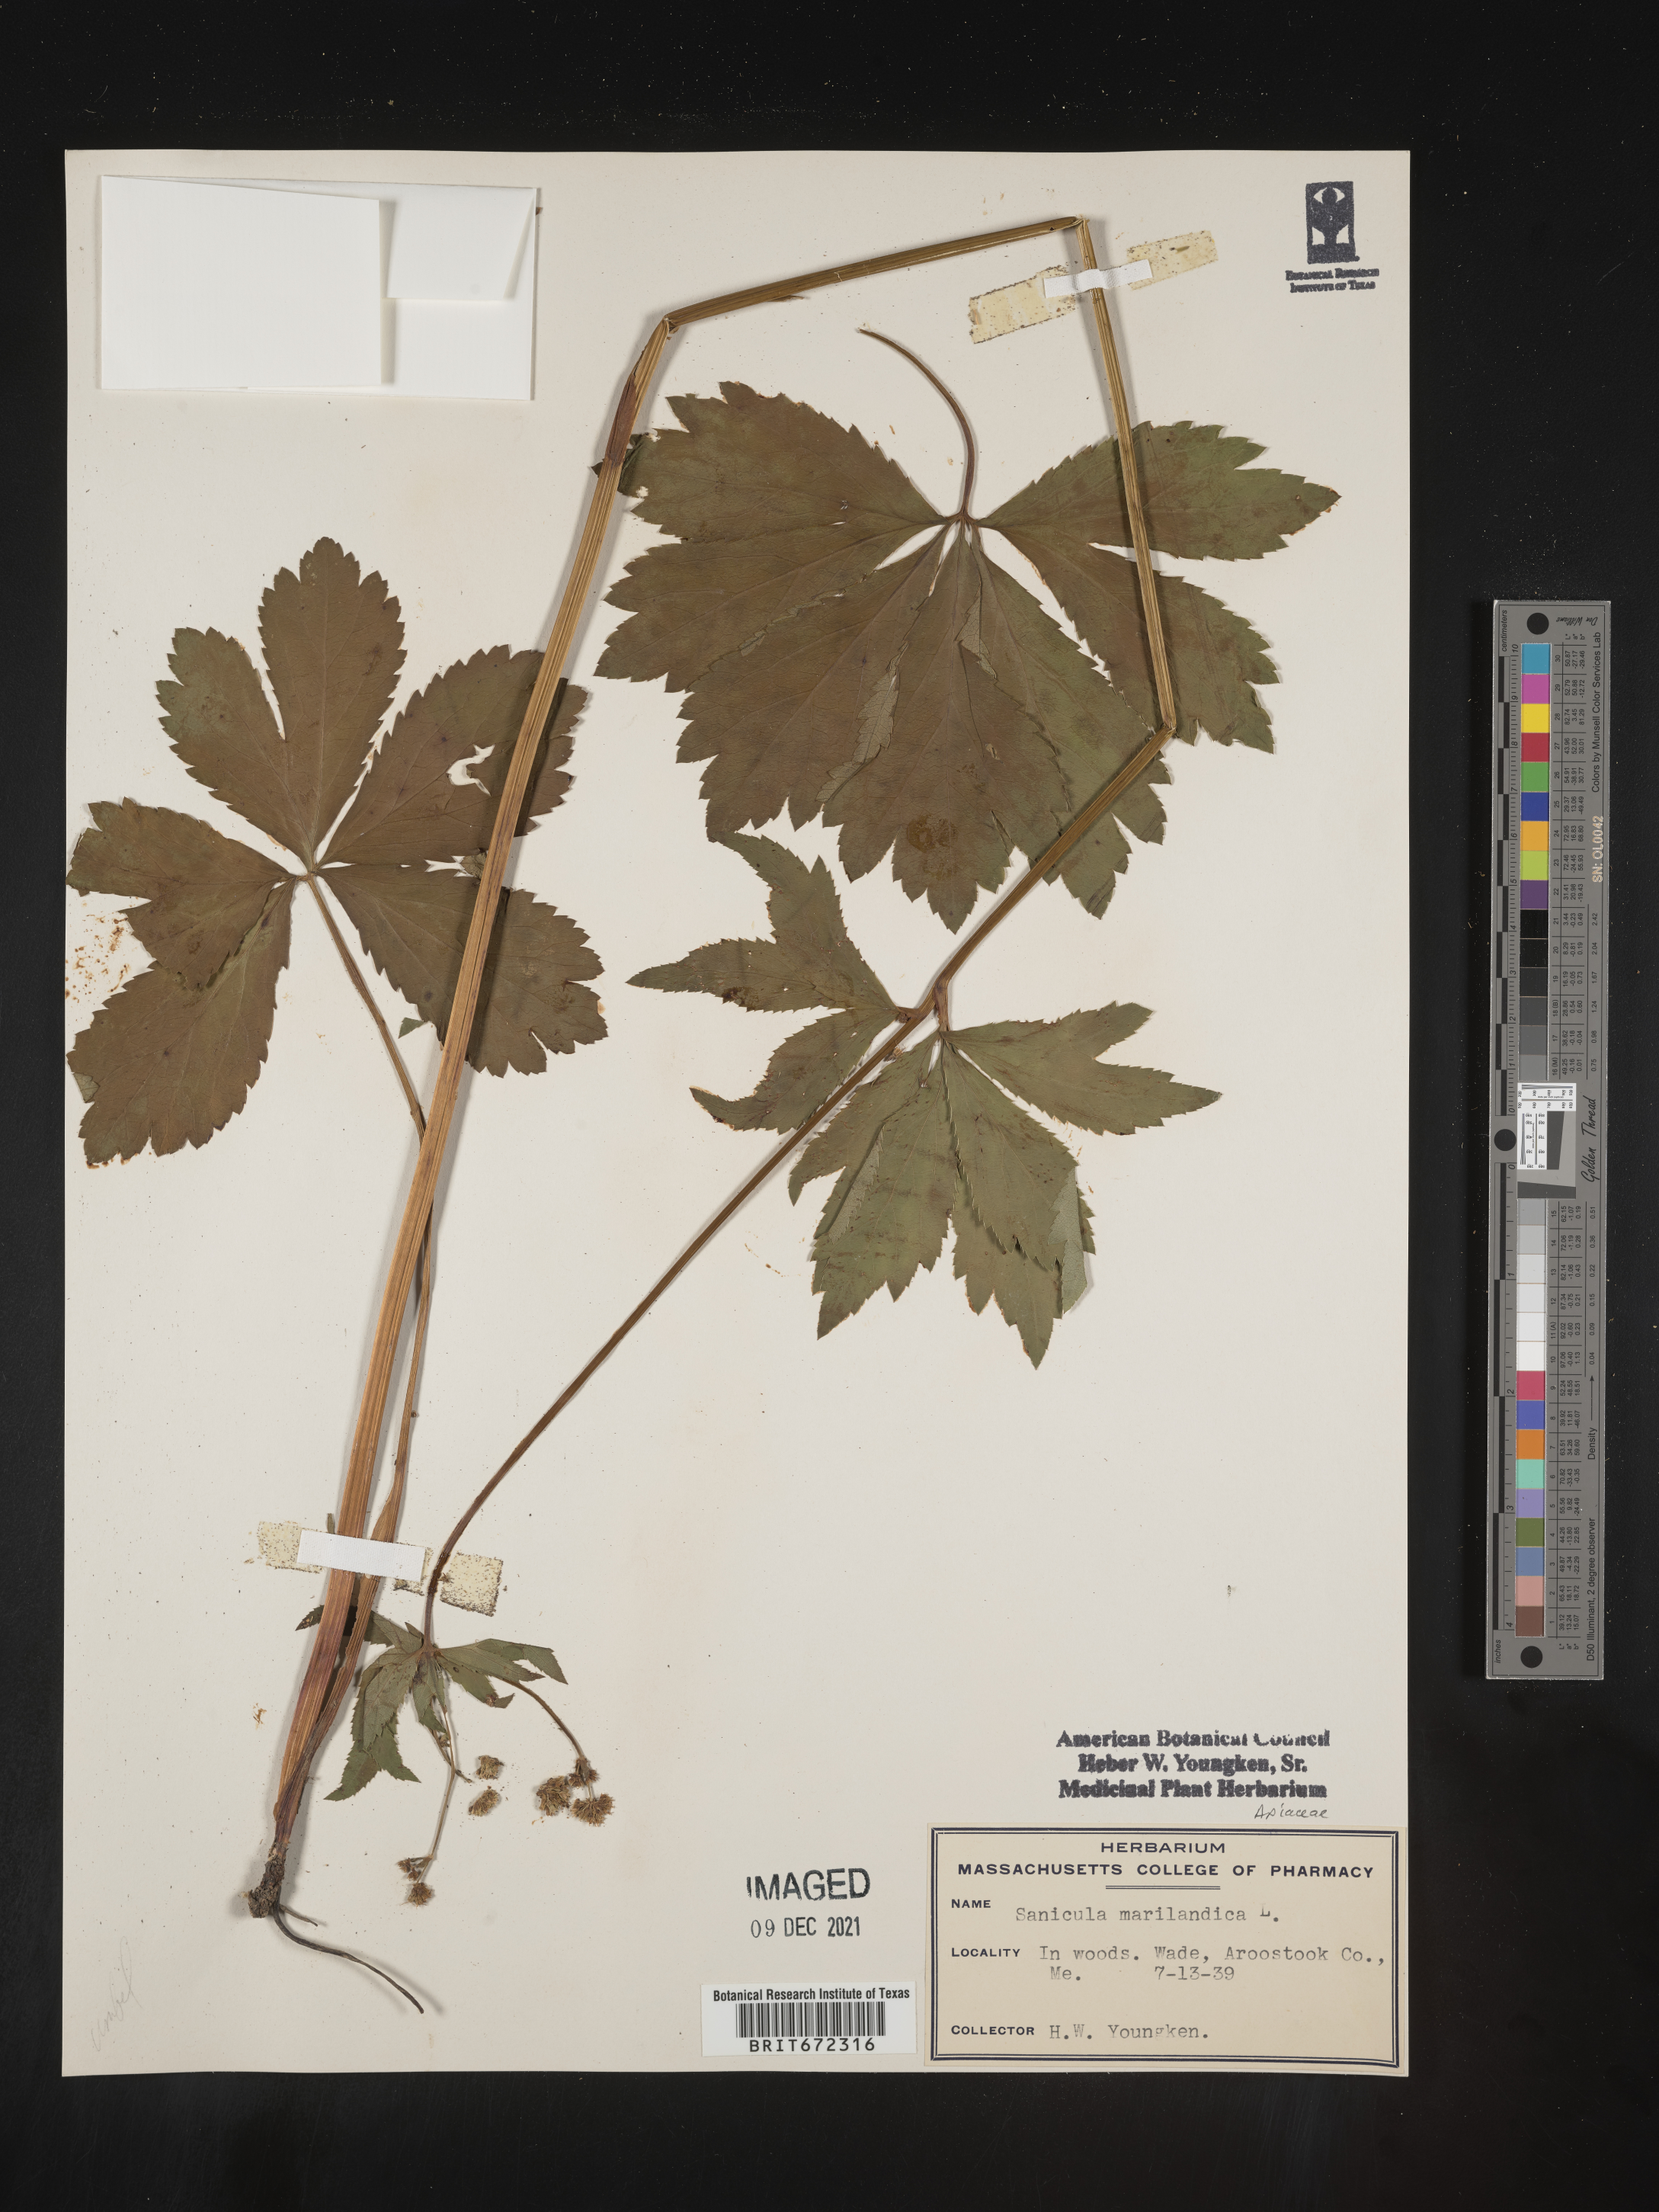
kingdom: Plantae
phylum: Tracheophyta
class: Magnoliopsida
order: Apiales
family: Apiaceae
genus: Sanicula
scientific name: Sanicula marilandica
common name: Black snakeroot
